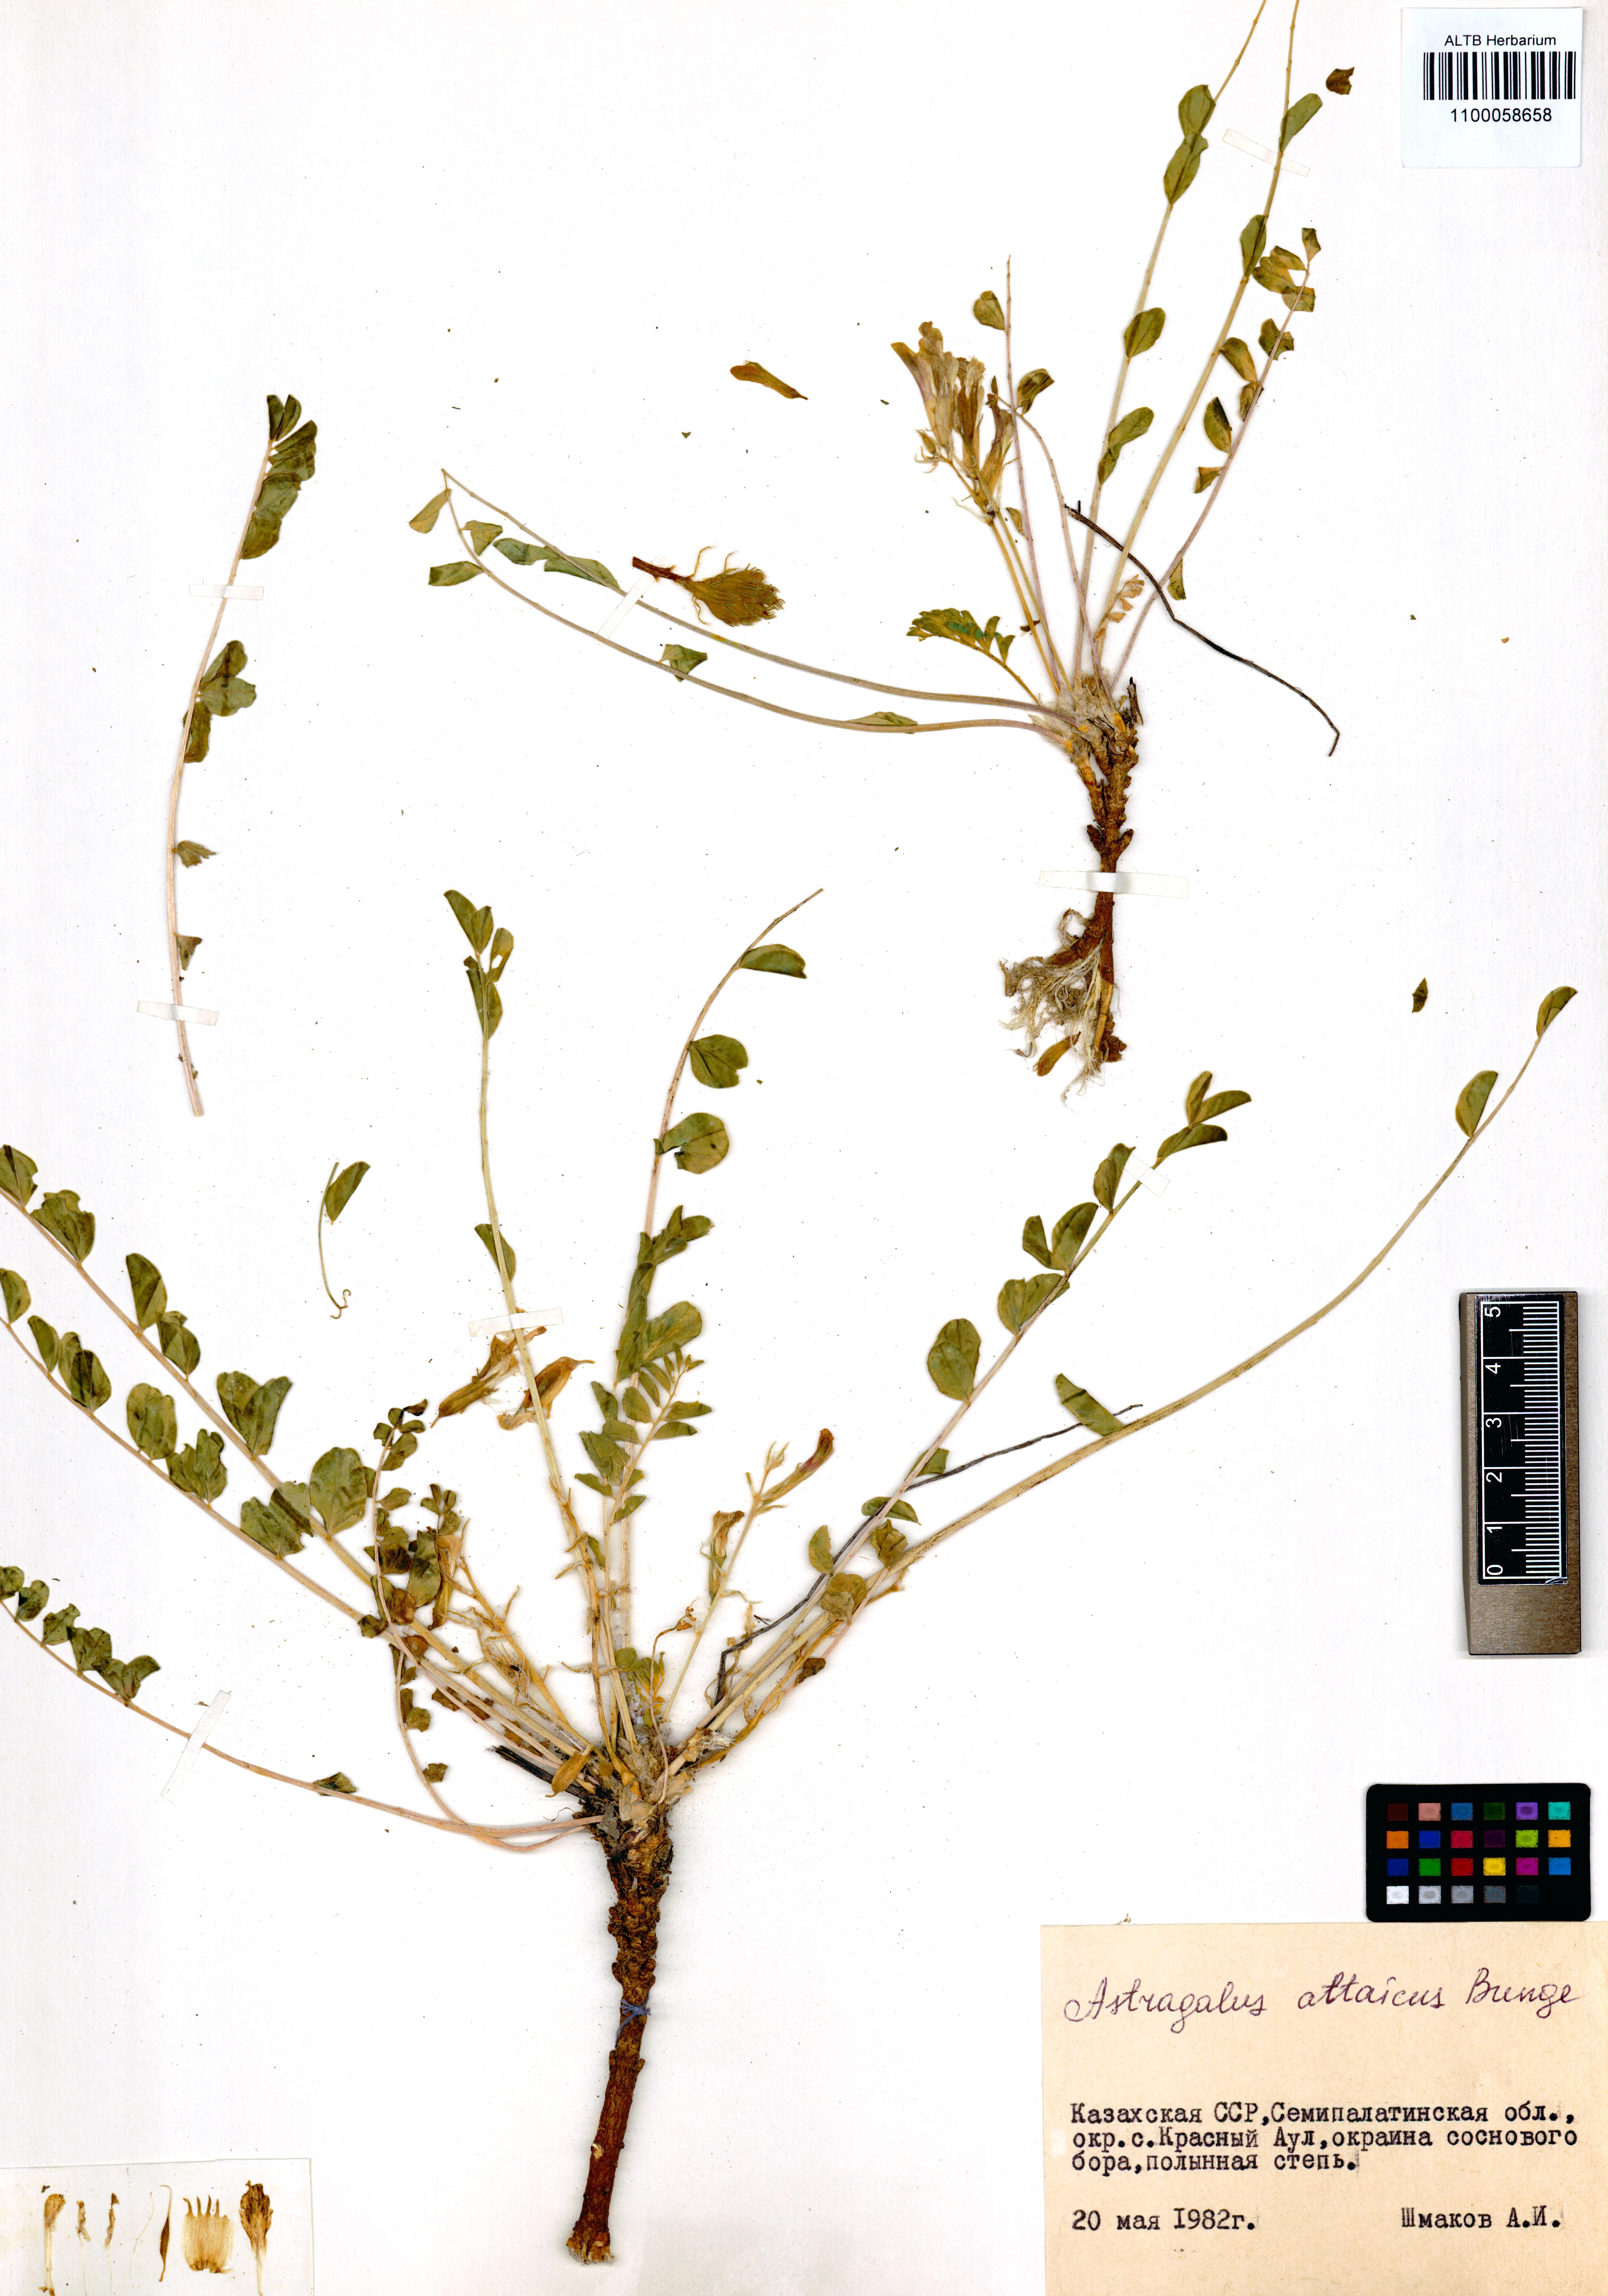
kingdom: Plantae
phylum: Tracheophyta
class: Magnoliopsida
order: Fabales
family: Fabaceae
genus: Astragalus
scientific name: Astragalus altaicola
